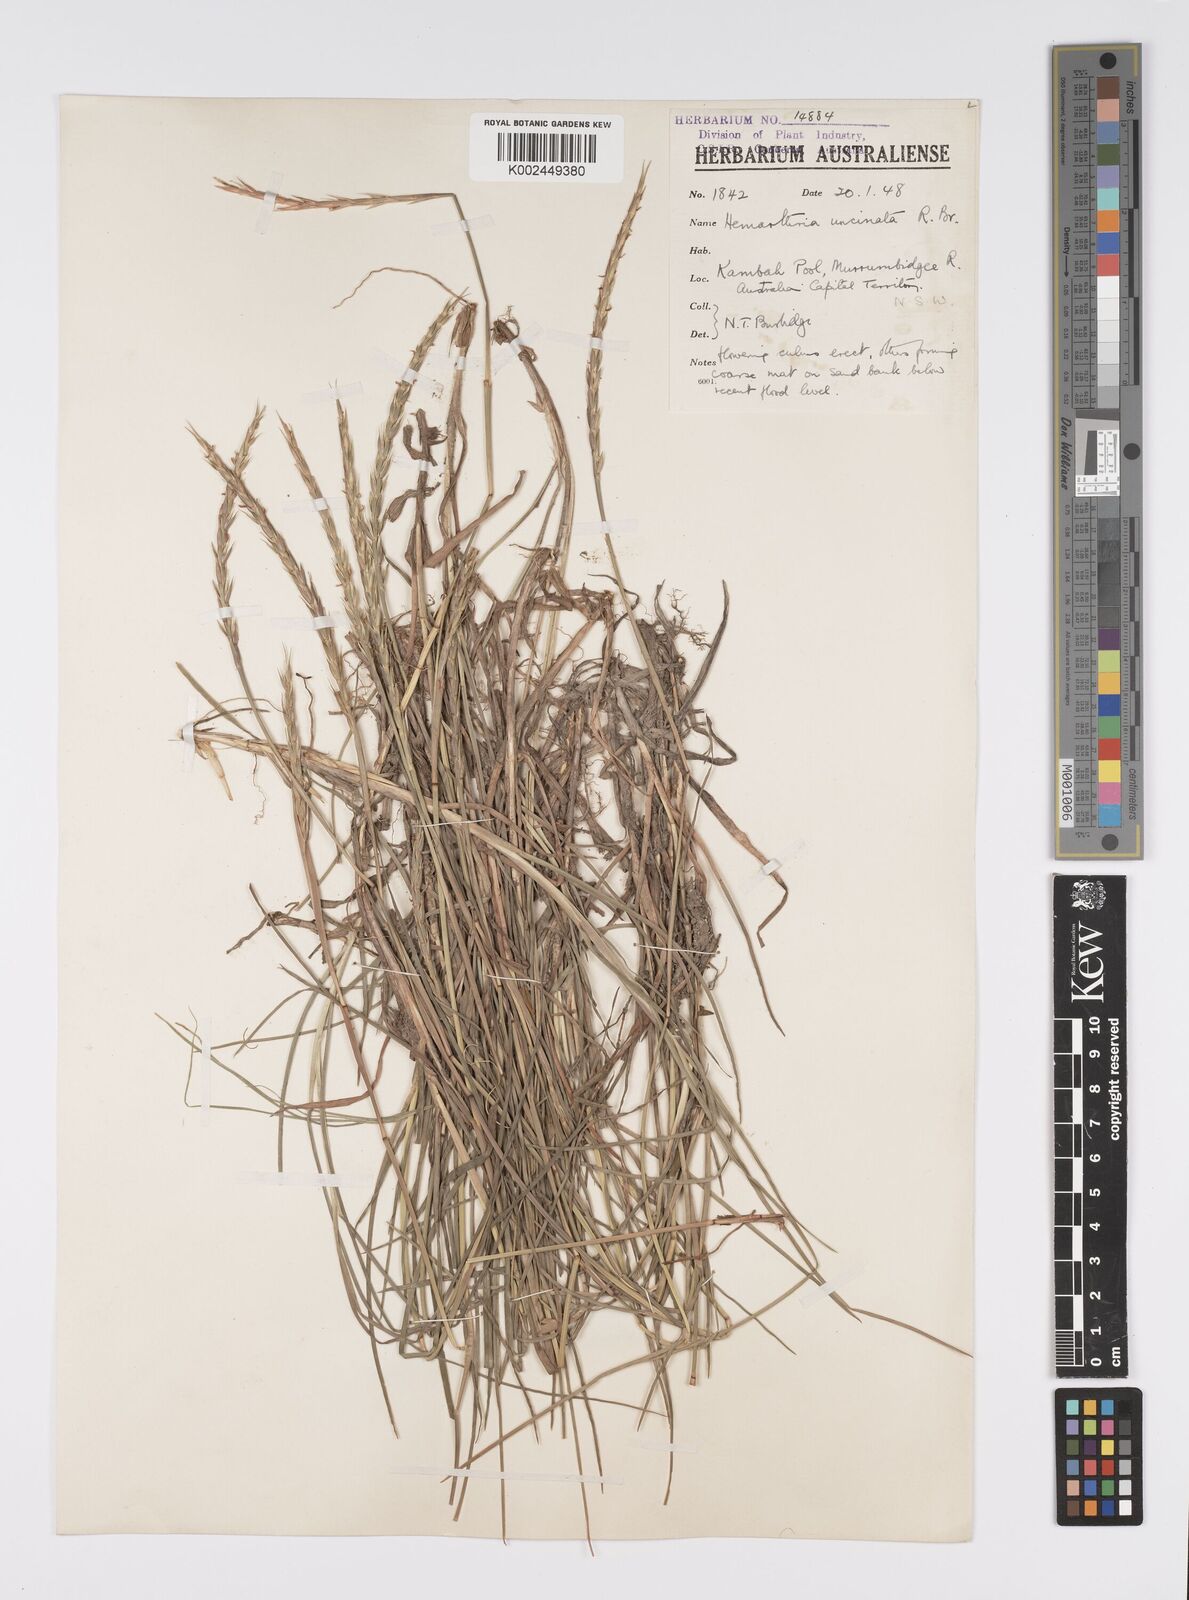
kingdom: Plantae
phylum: Tracheophyta
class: Liliopsida
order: Poales
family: Poaceae
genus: Hemarthria
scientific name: Hemarthria uncinata
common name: Matgrass
